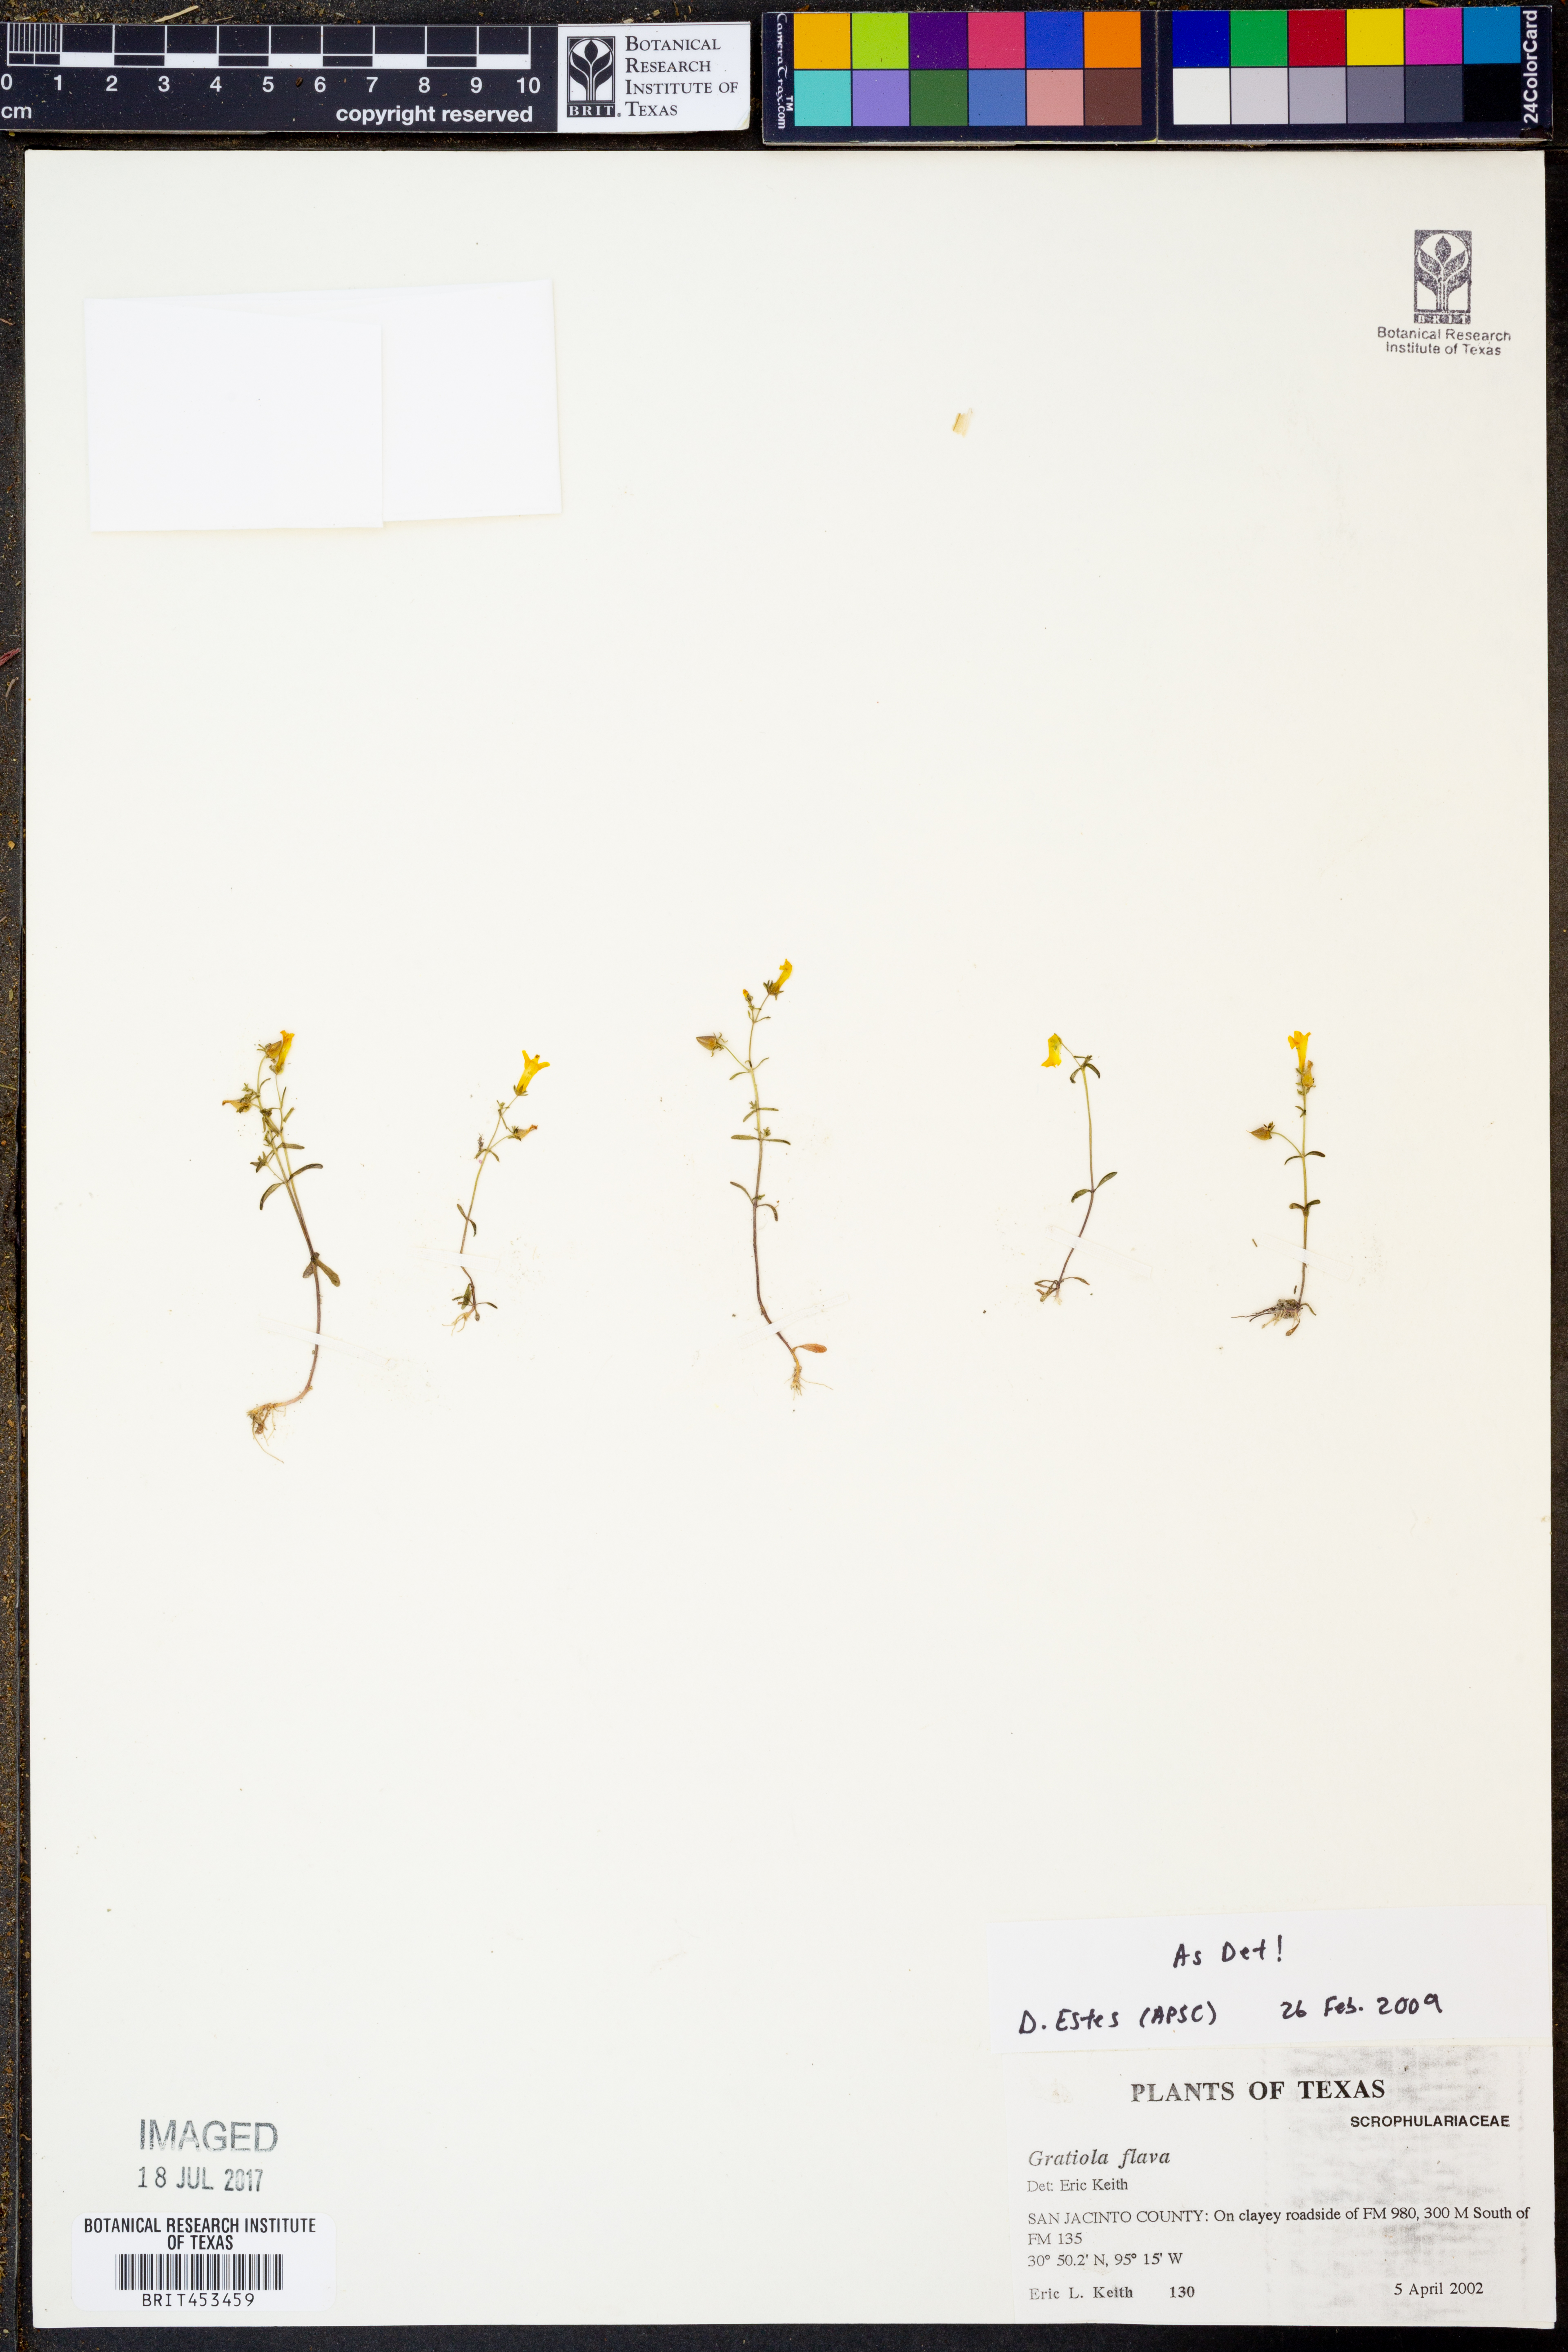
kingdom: Plantae
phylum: Tracheophyta
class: Magnoliopsida
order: Lamiales
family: Plantaginaceae
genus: Gratiola
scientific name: Gratiola flava
